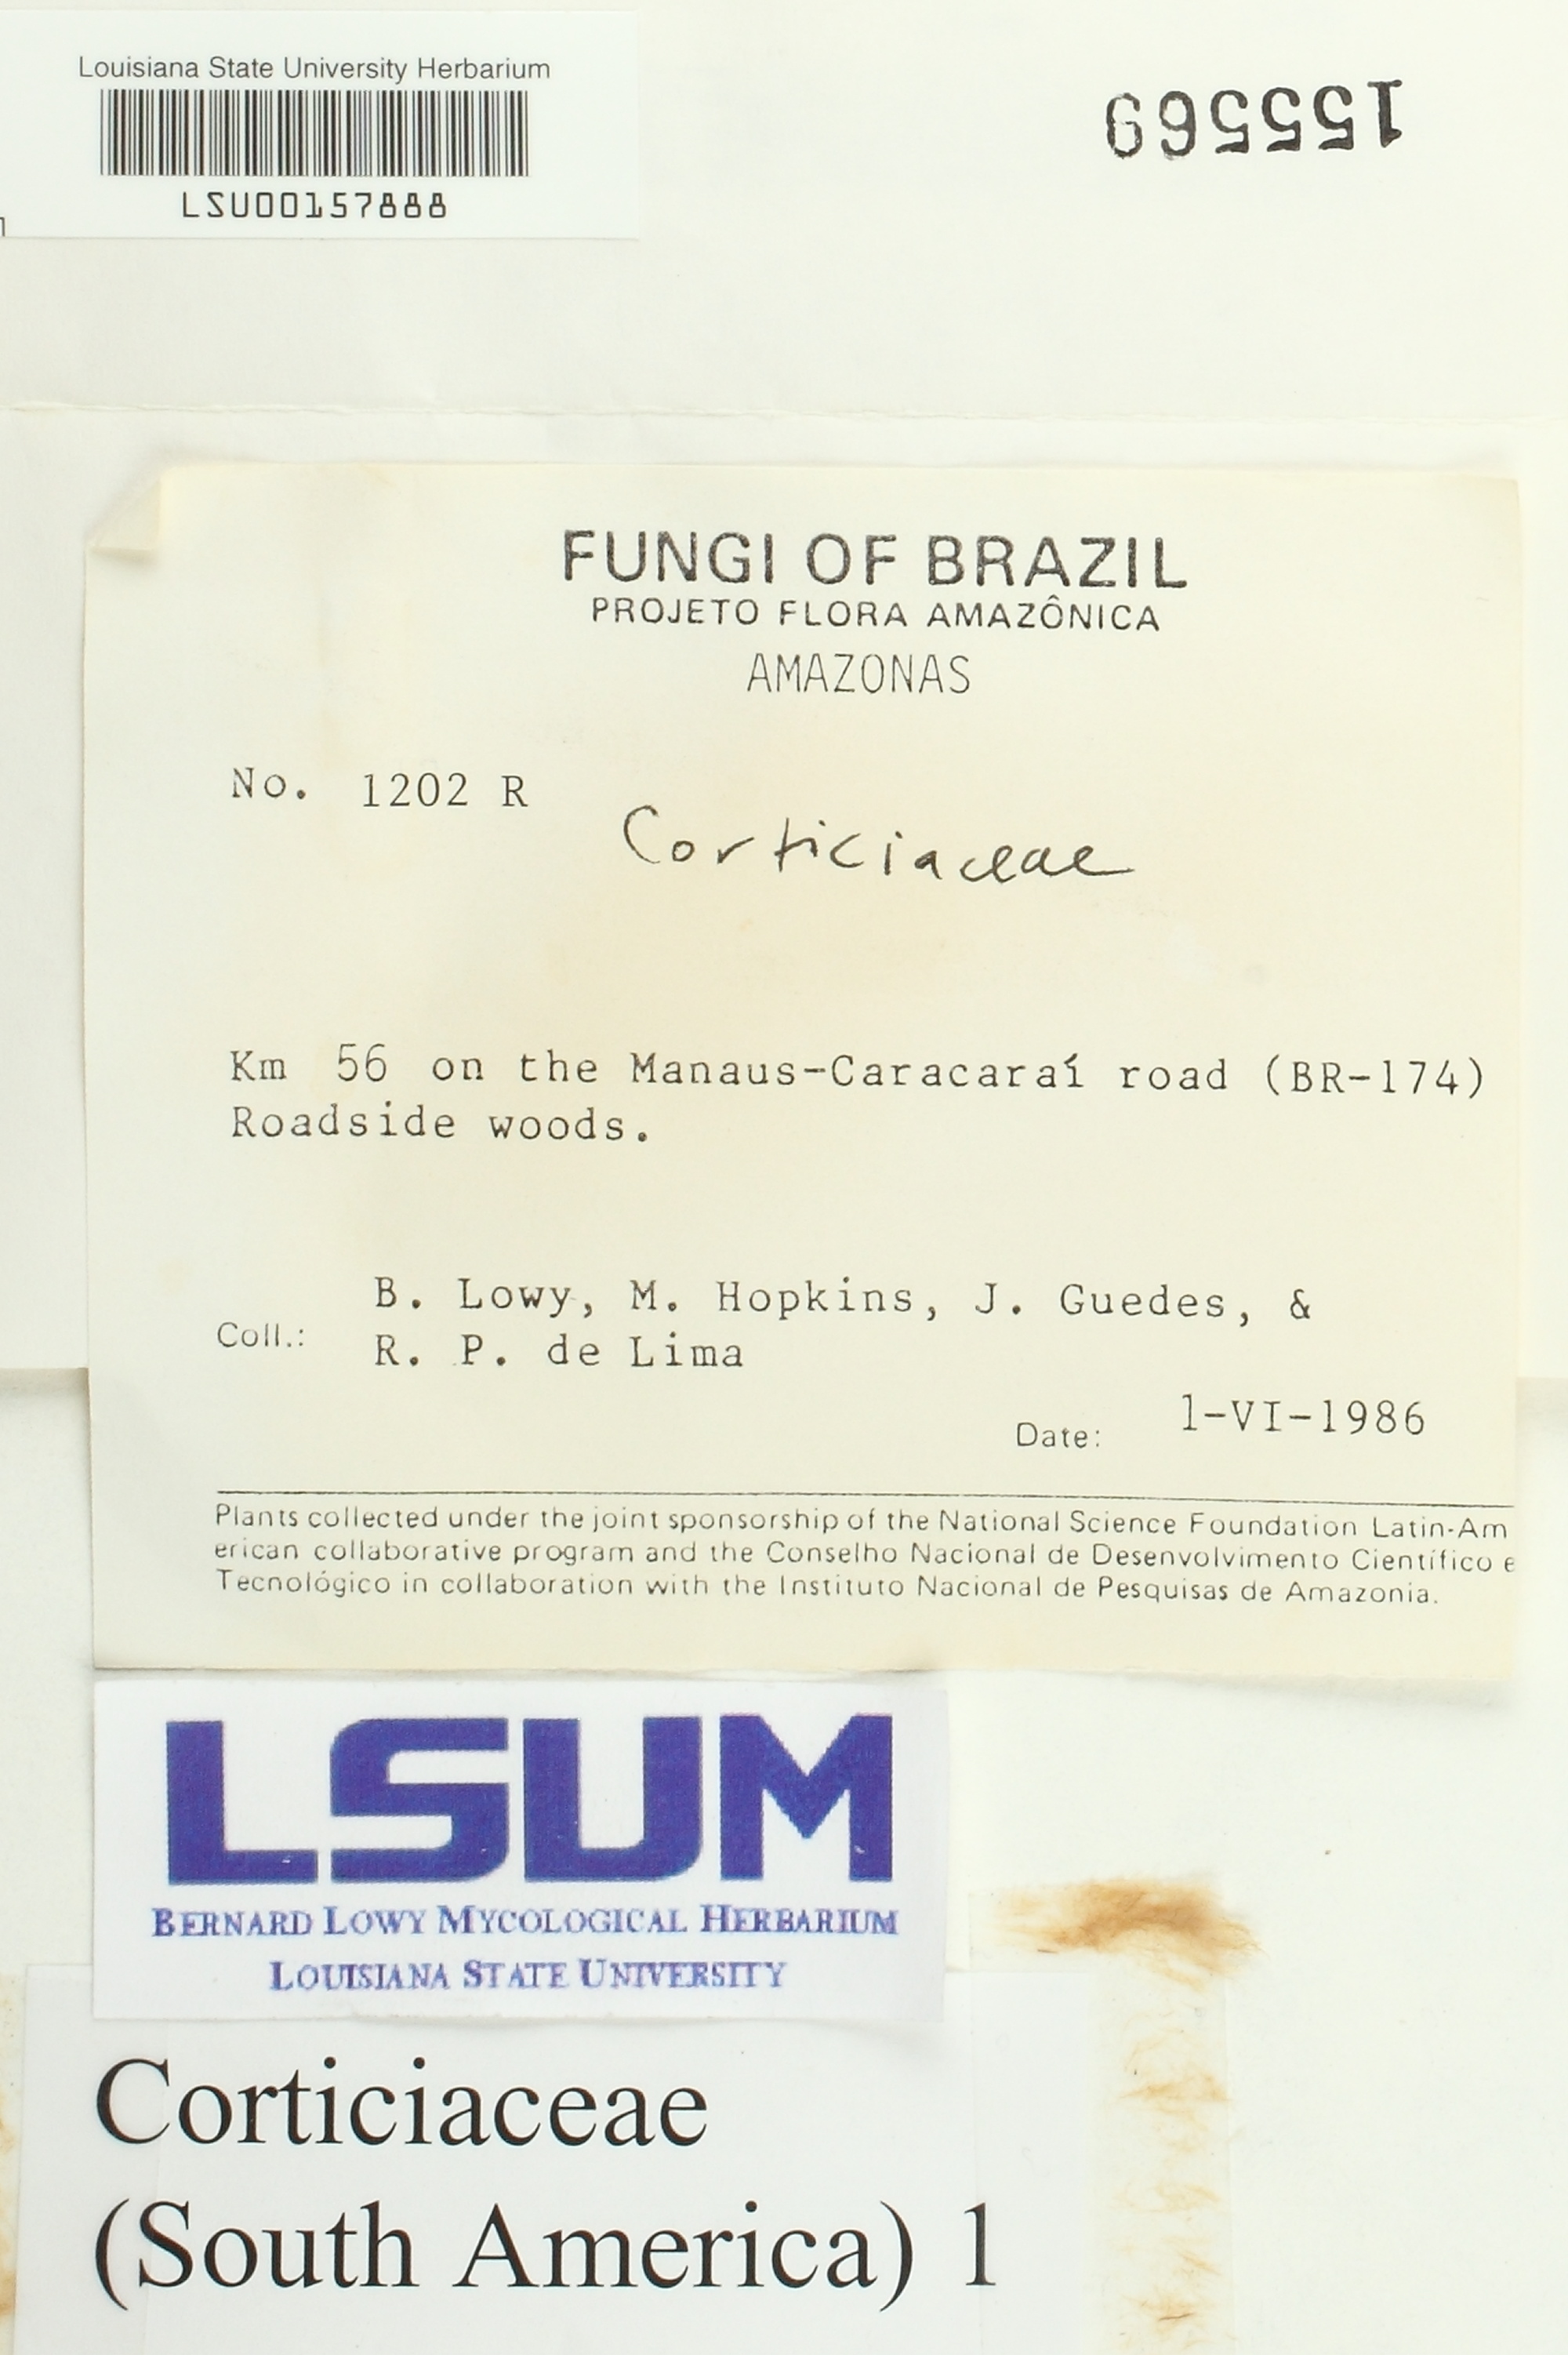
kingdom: Fungi
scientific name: Fungi
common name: Fungi
